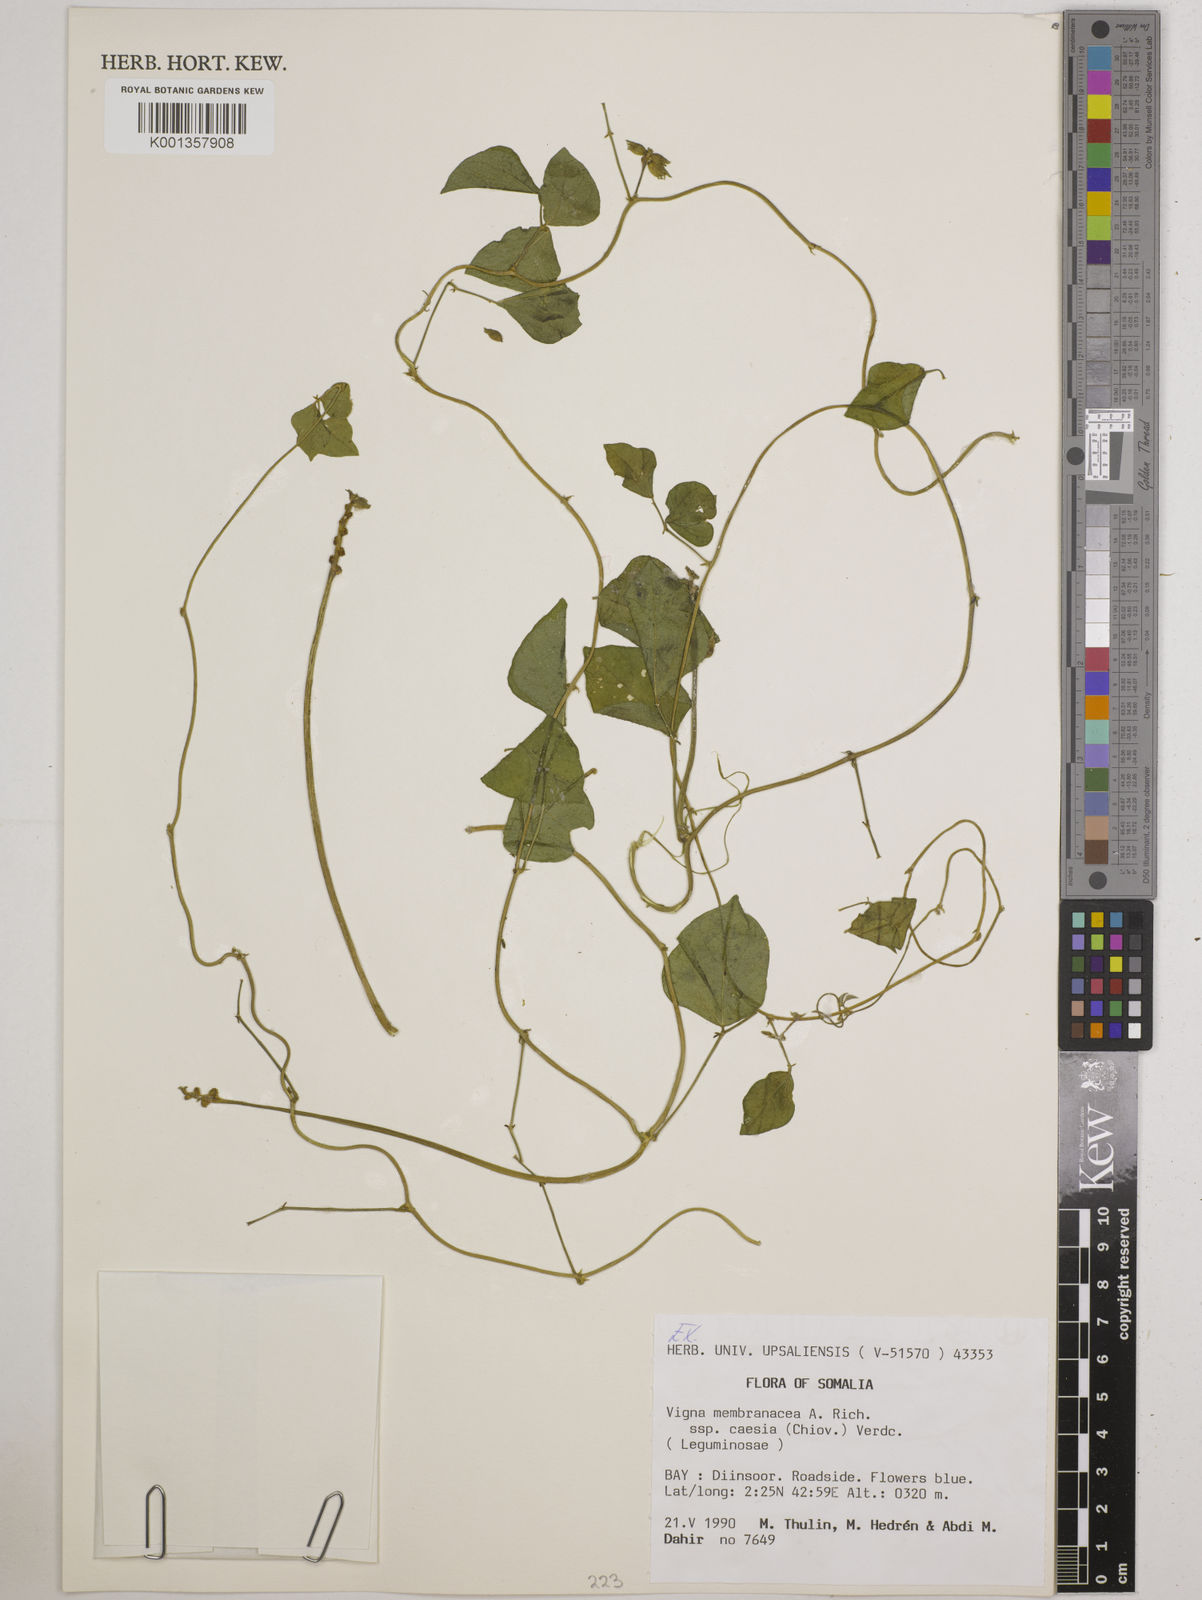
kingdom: Plantae
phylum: Tracheophyta
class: Magnoliopsida
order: Fabales
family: Fabaceae
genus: Vigna
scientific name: Vigna
